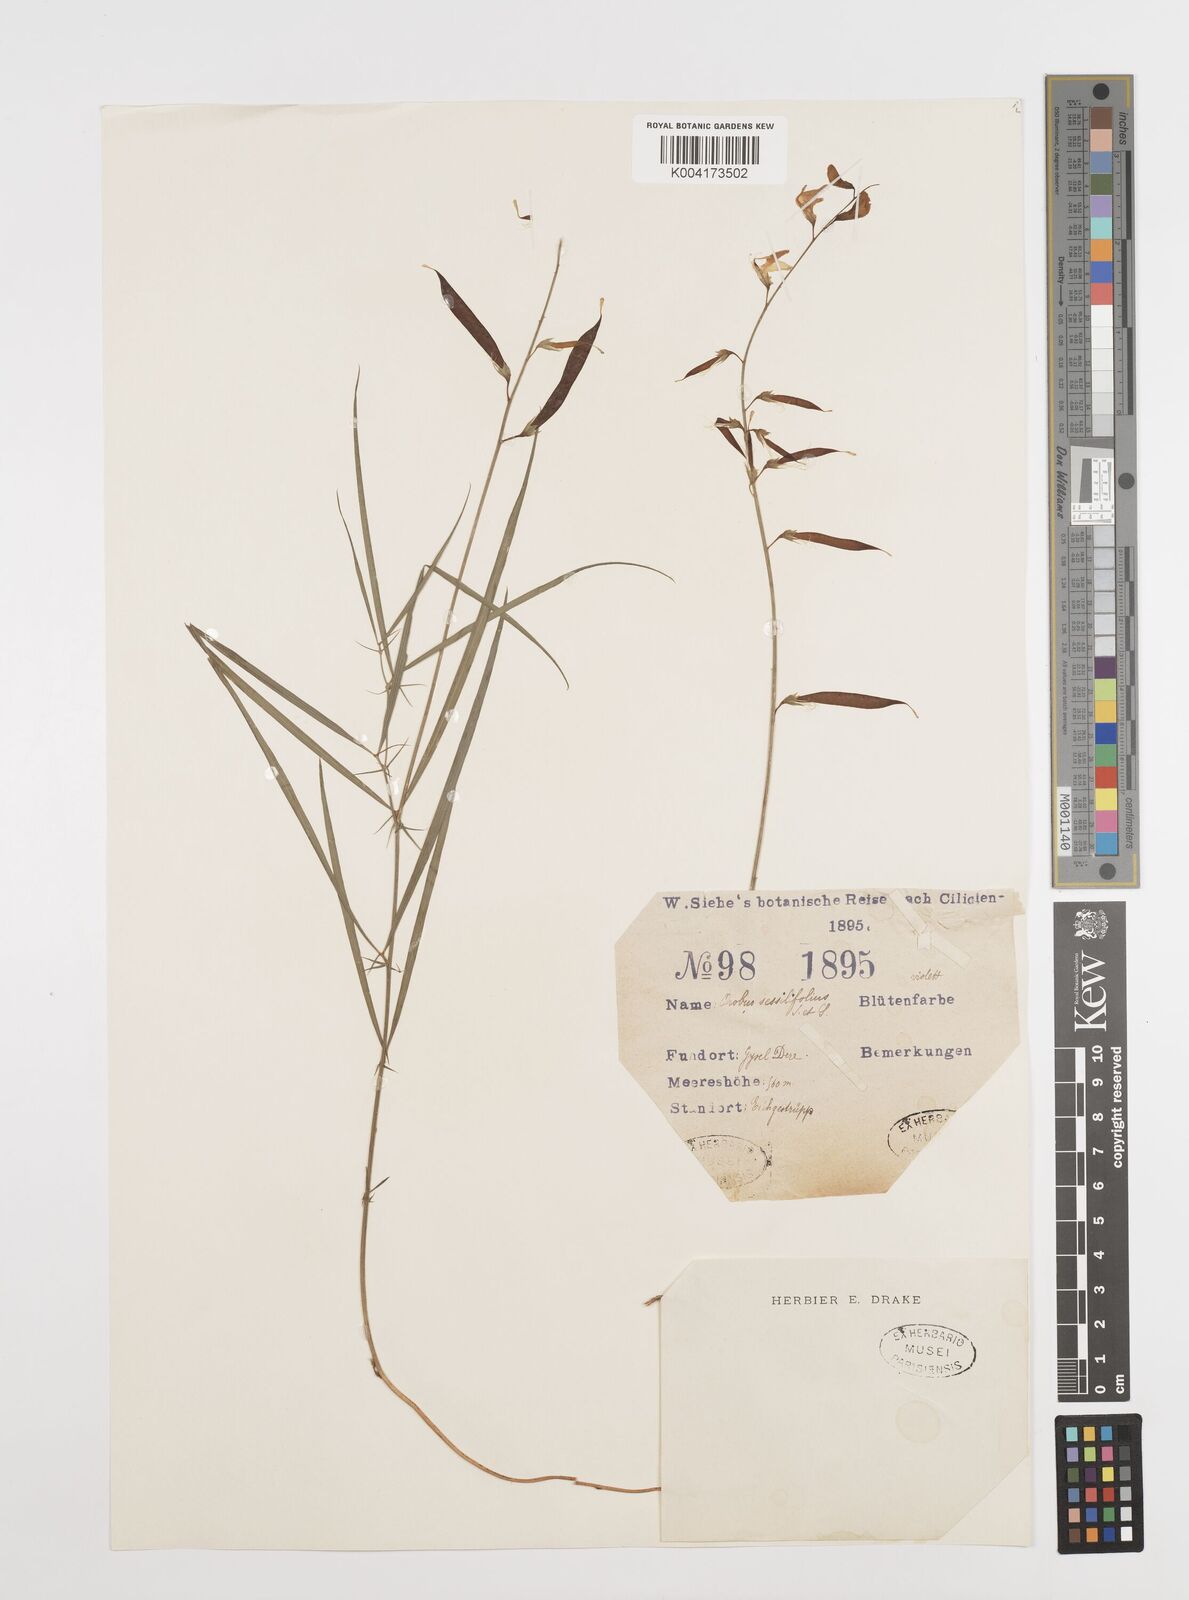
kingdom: Plantae
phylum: Tracheophyta
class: Magnoliopsida
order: Fabales
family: Fabaceae
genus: Lathyrus
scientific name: Lathyrus spathulatus
